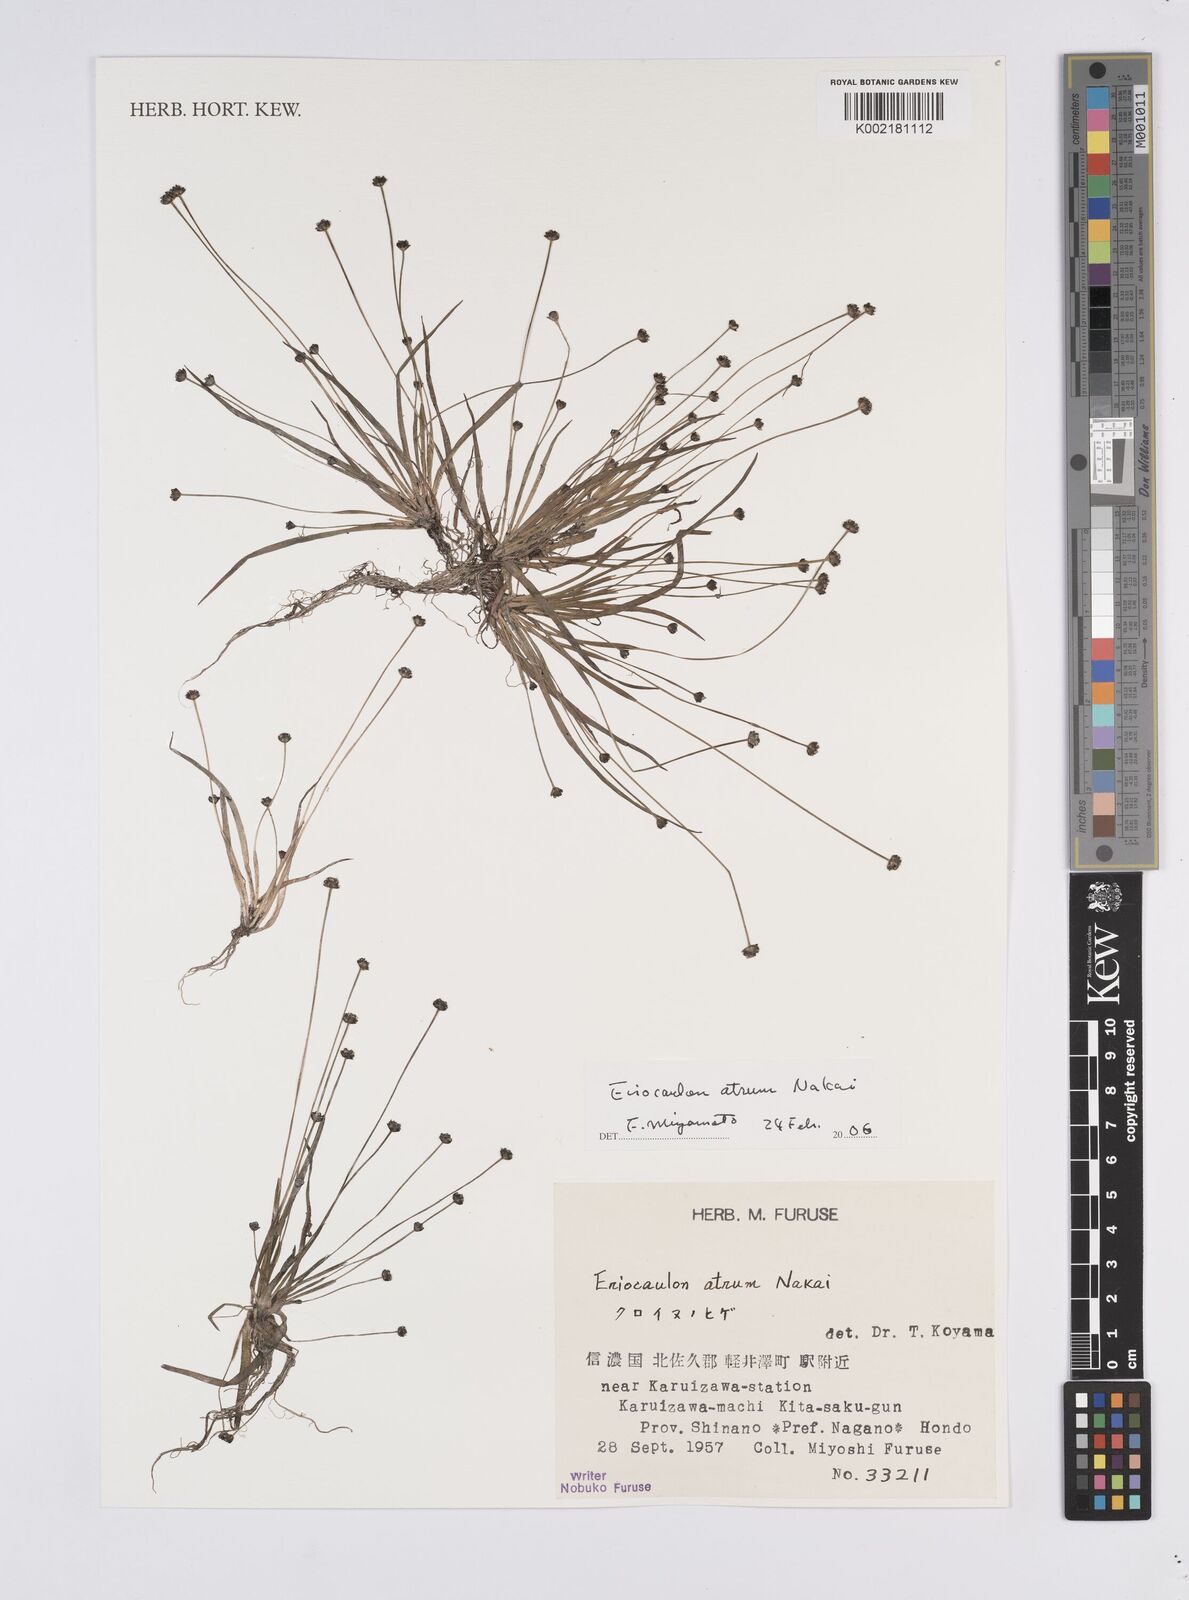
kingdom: Plantae
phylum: Tracheophyta
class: Liliopsida
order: Poales
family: Eriocaulaceae
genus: Eriocaulon
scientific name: Eriocaulon atrum
